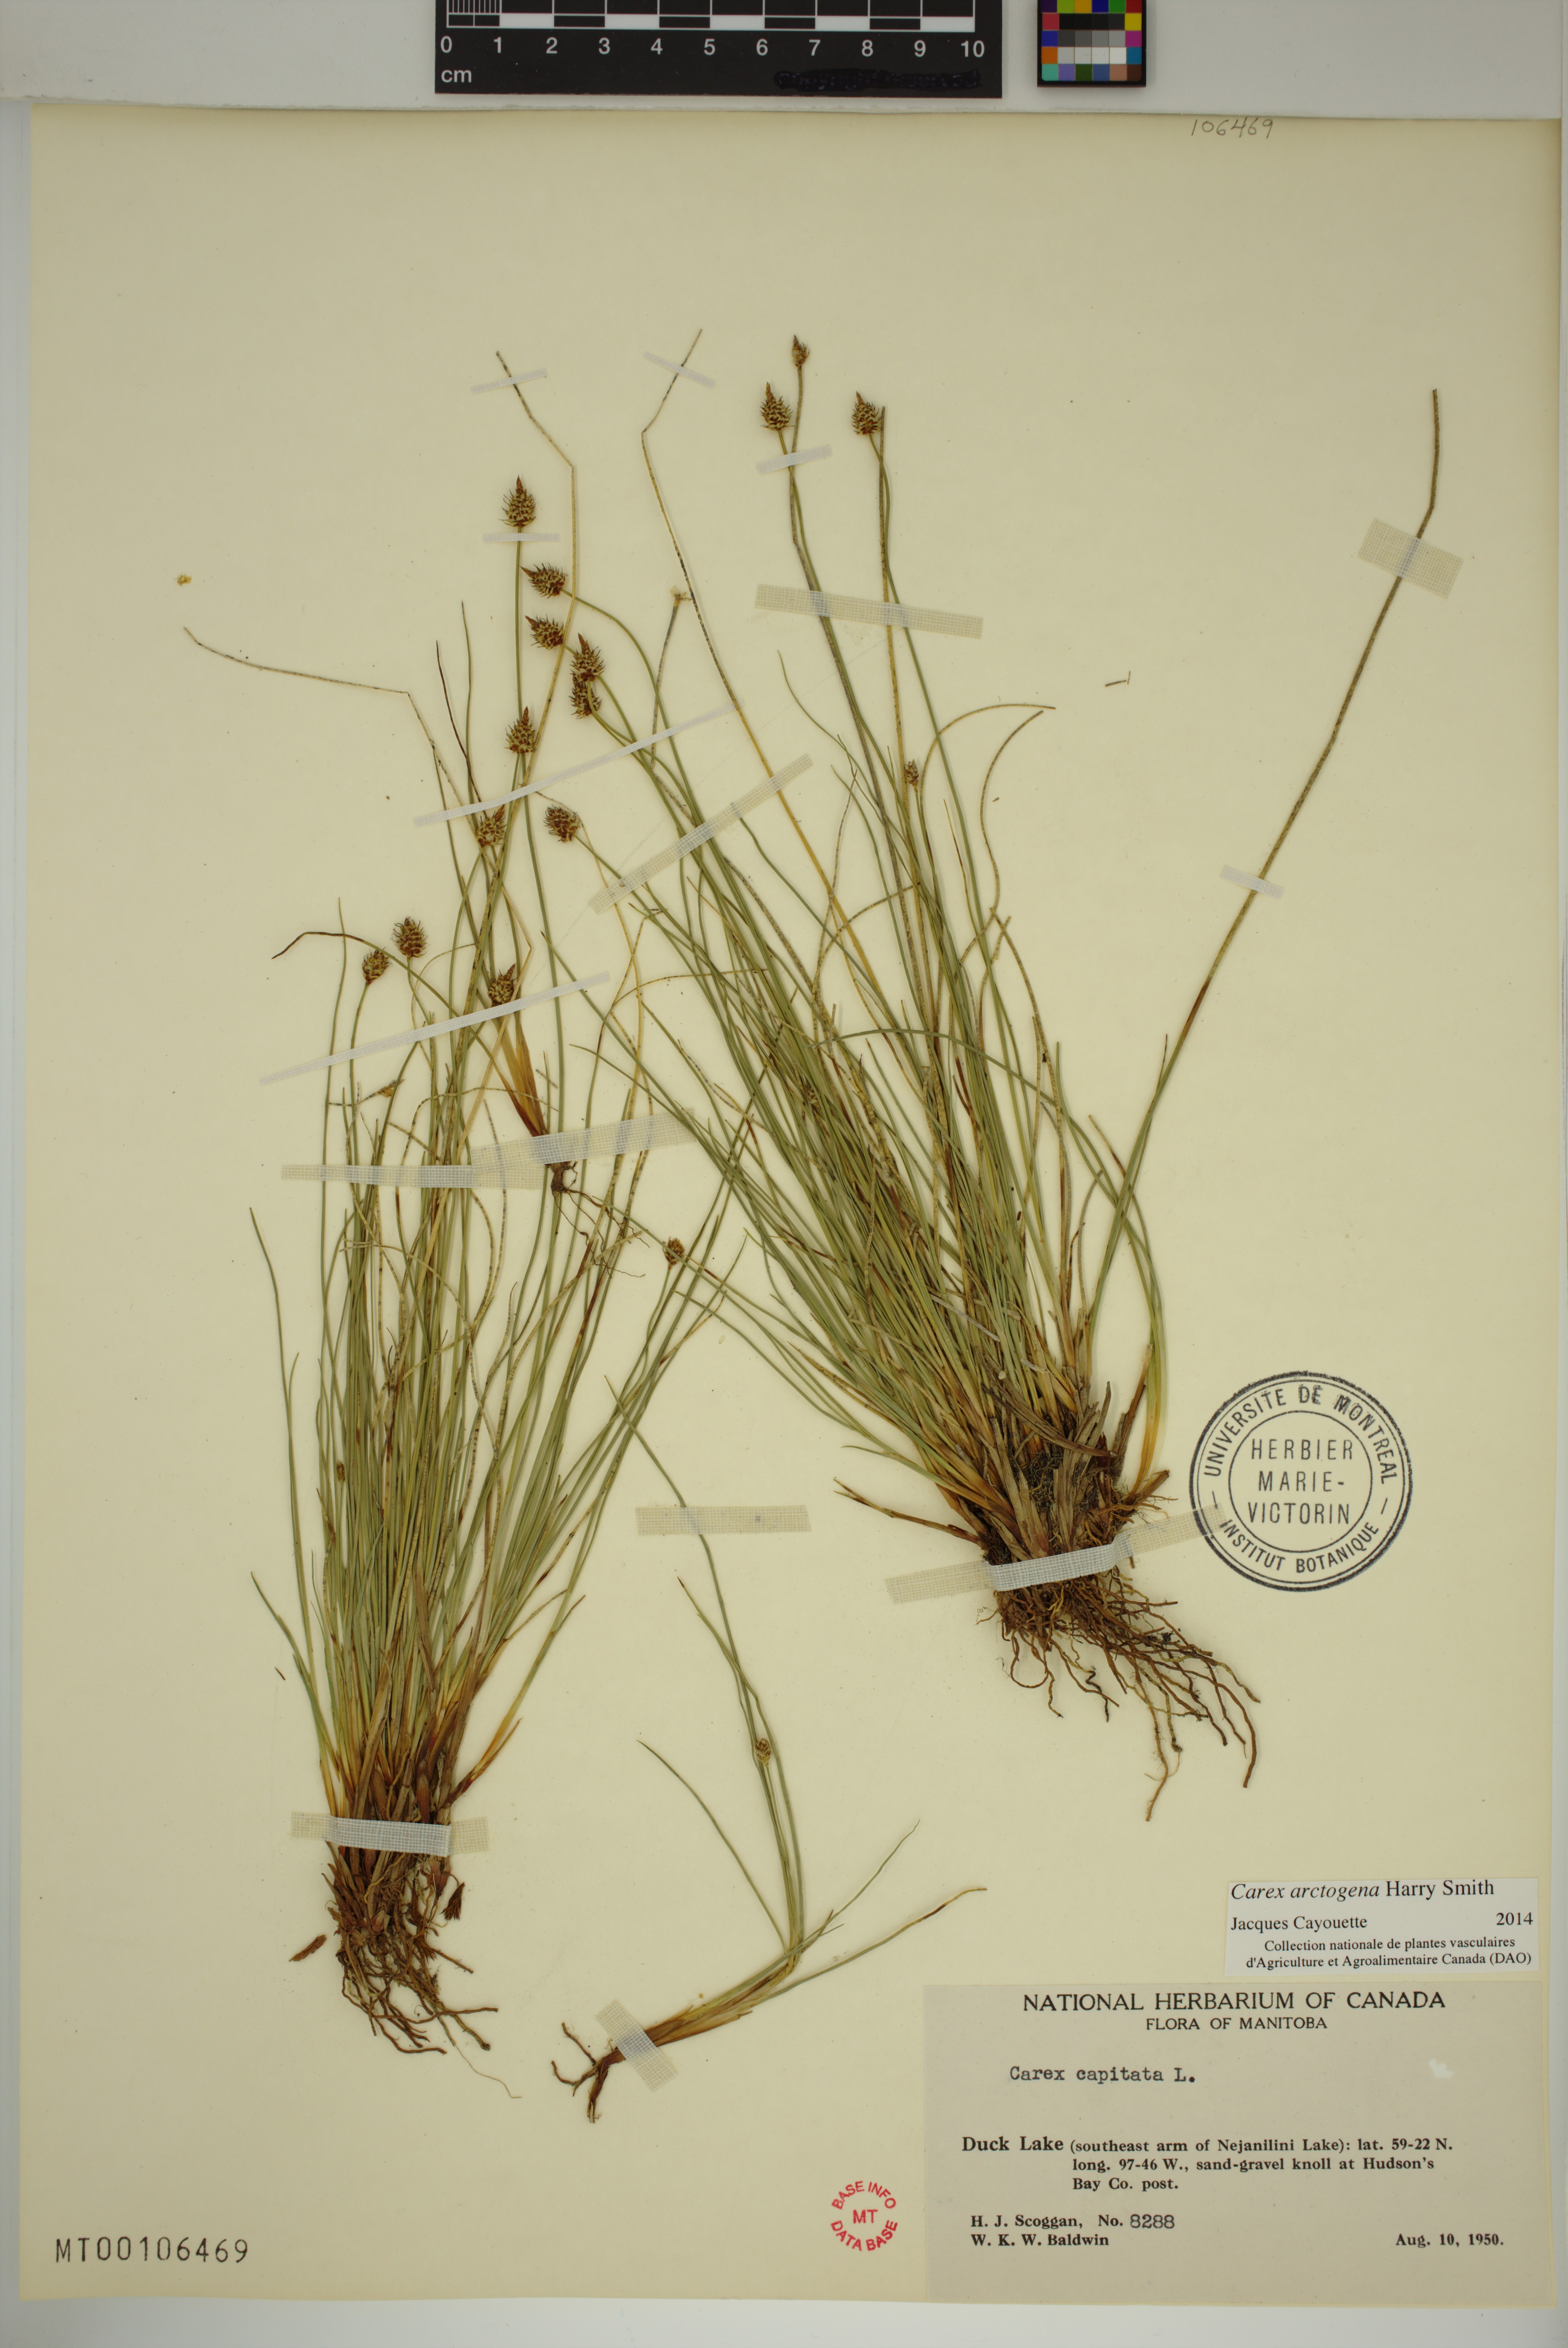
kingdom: Plantae
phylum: Tracheophyta
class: Liliopsida
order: Poales
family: Cyperaceae
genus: Carex
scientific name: Carex arctogena
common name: Black sedge
